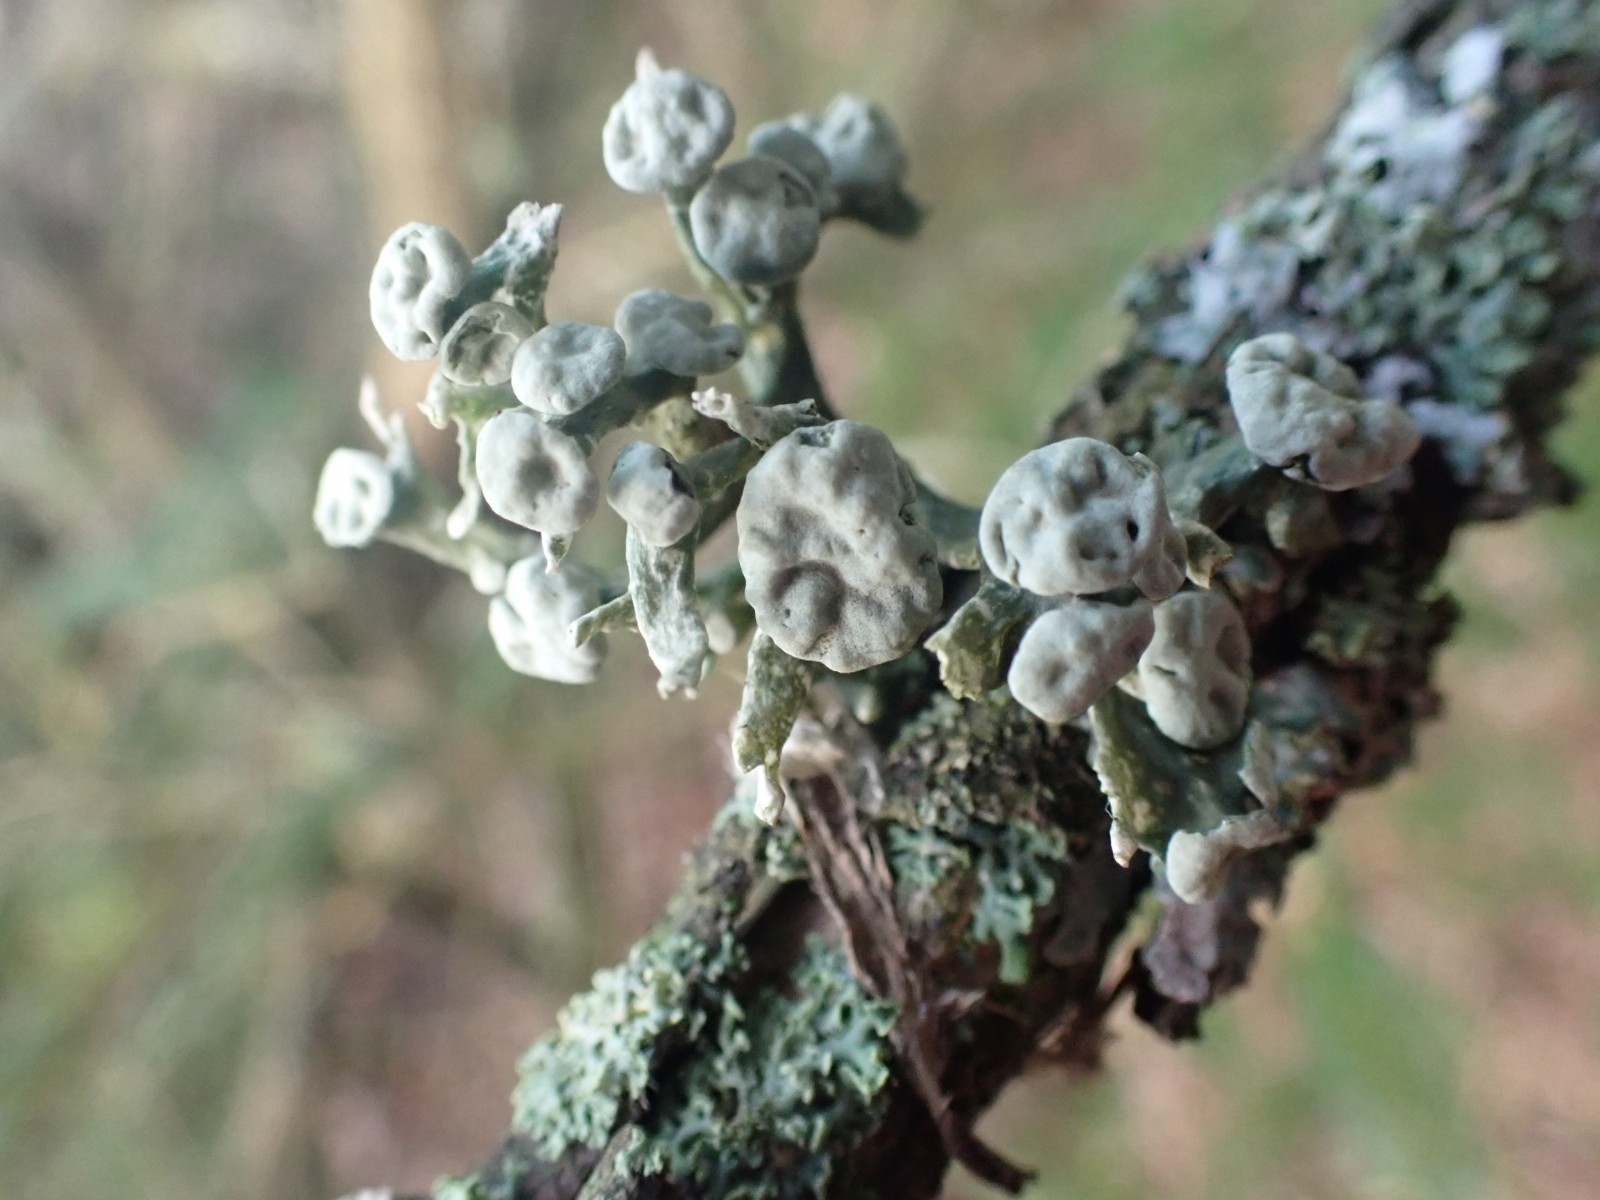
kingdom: Fungi
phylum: Ascomycota
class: Lecanoromycetes
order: Lecanorales
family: Ramalinaceae
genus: Ramalina
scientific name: Ramalina fastigiata
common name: tue-grenlav
